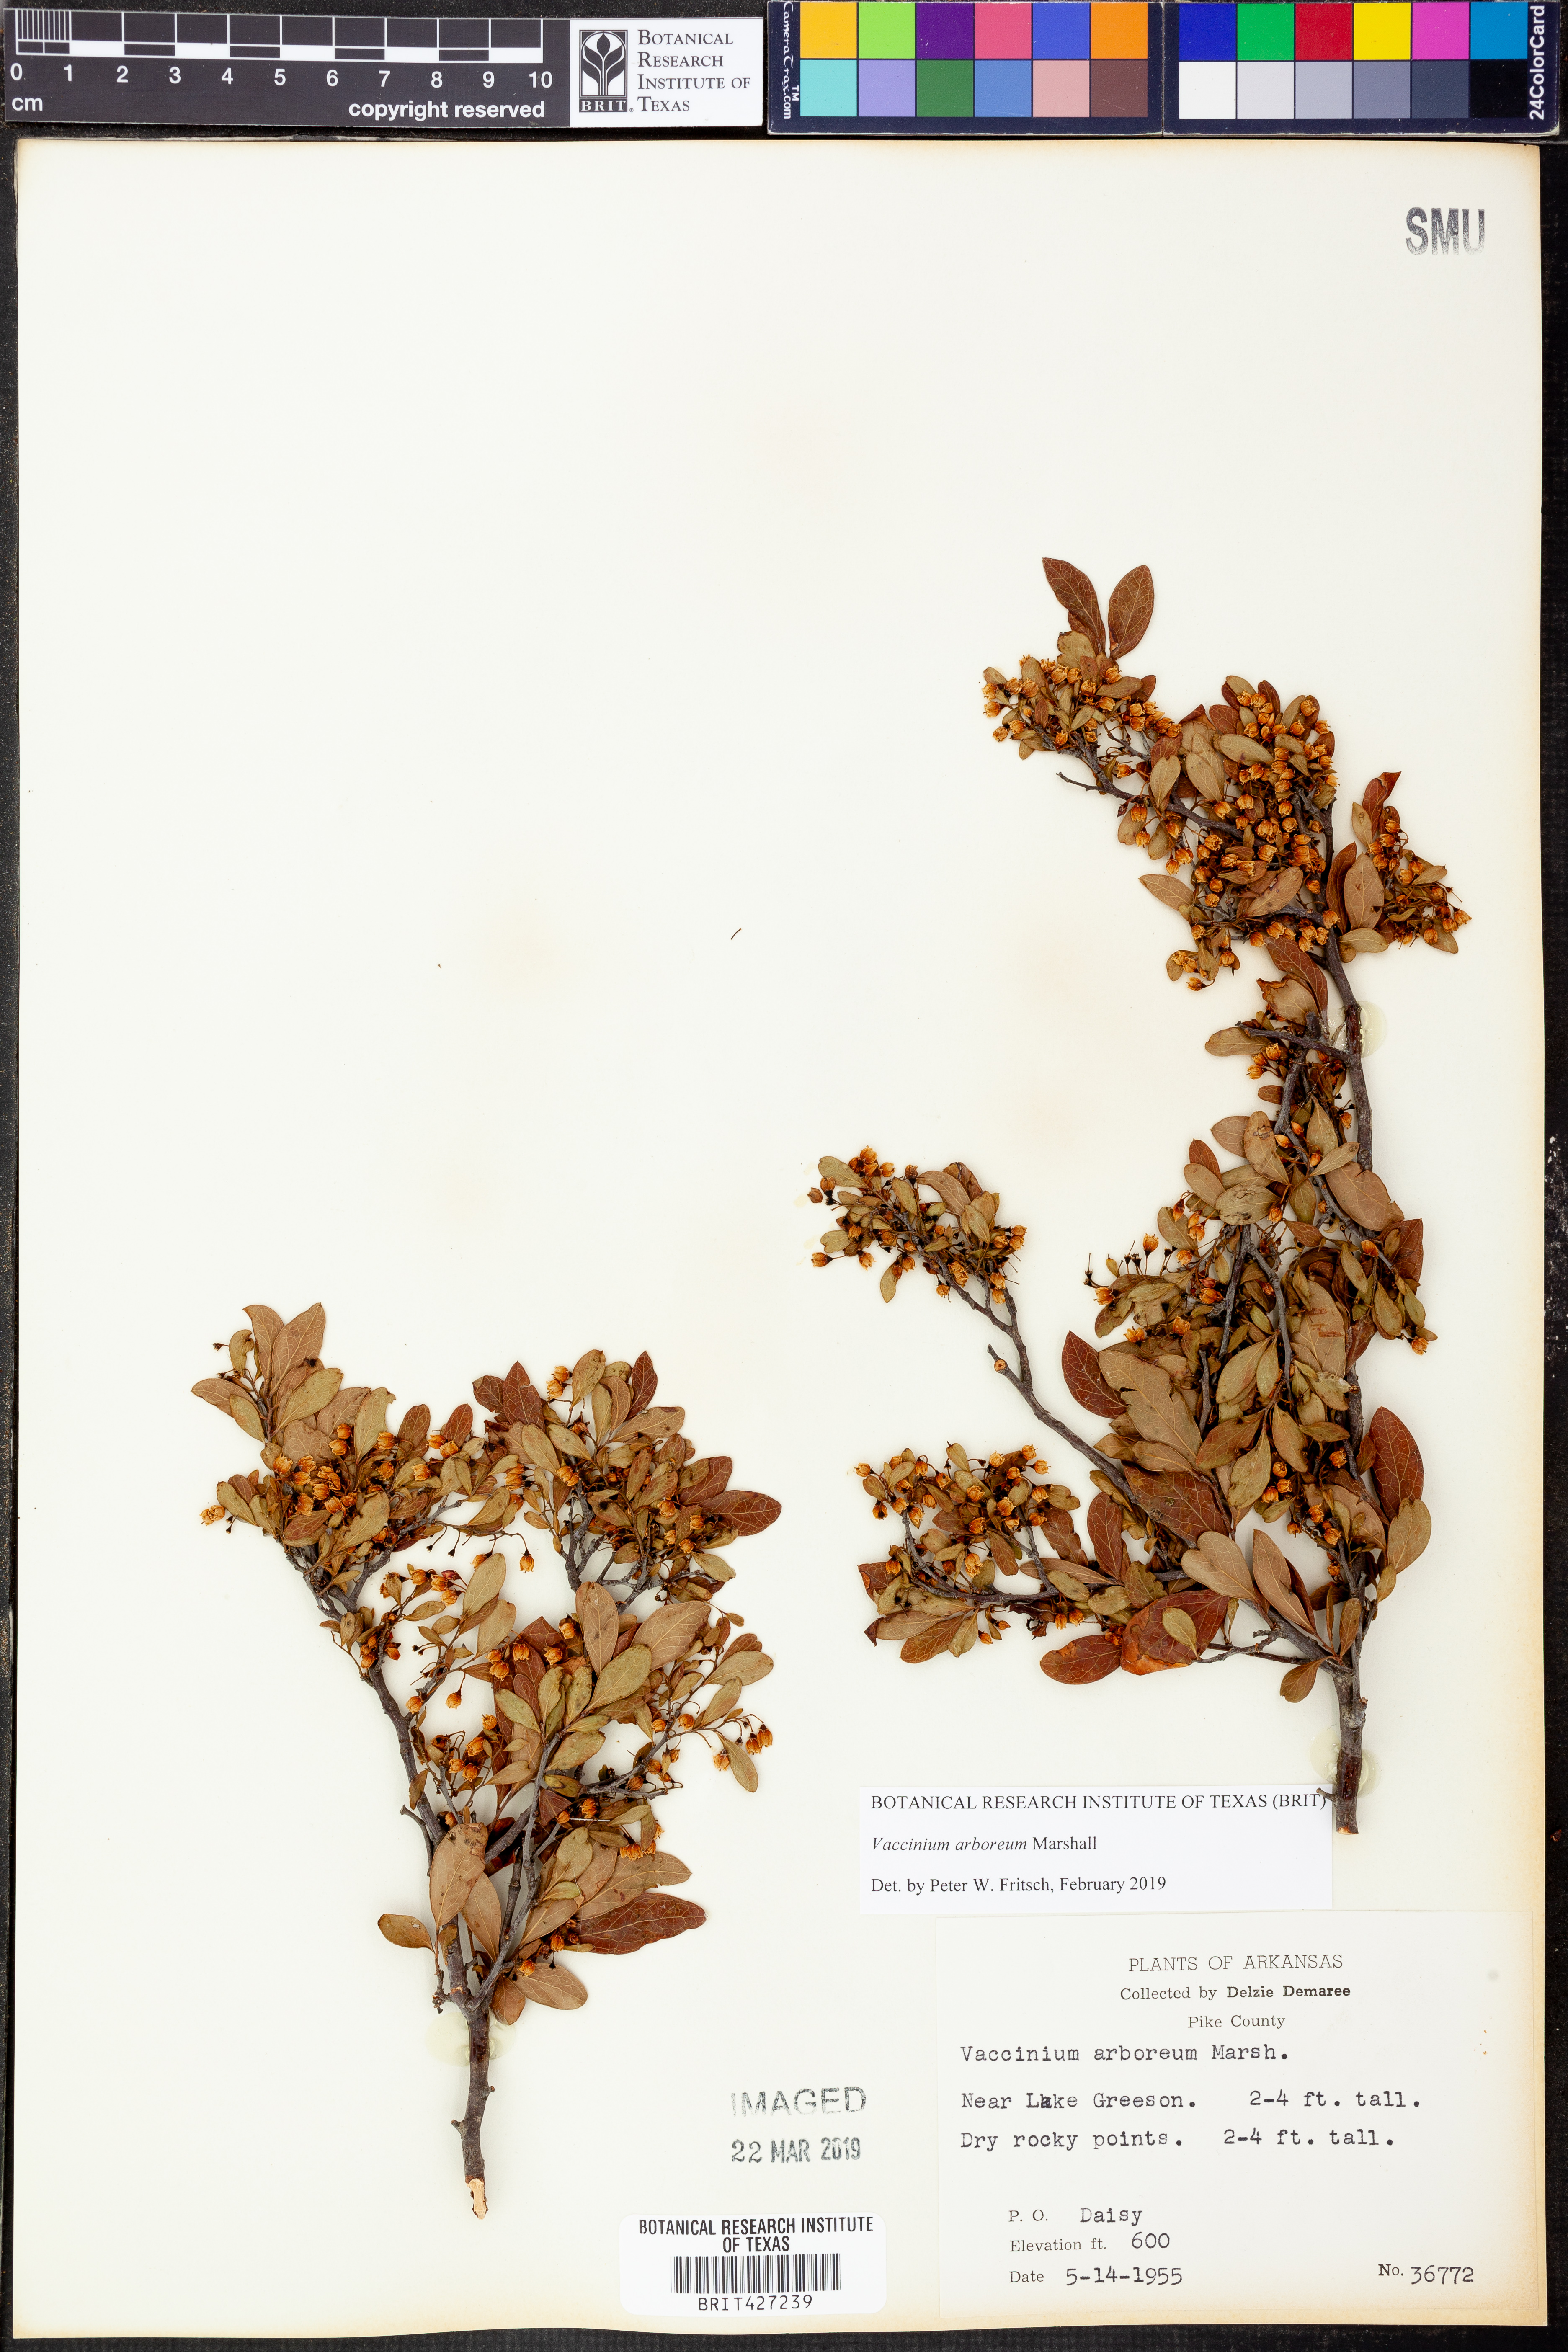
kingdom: Plantae
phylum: Tracheophyta
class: Magnoliopsida
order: Ericales
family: Ericaceae
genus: Vaccinium
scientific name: Vaccinium arboreum
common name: Farkleberry
